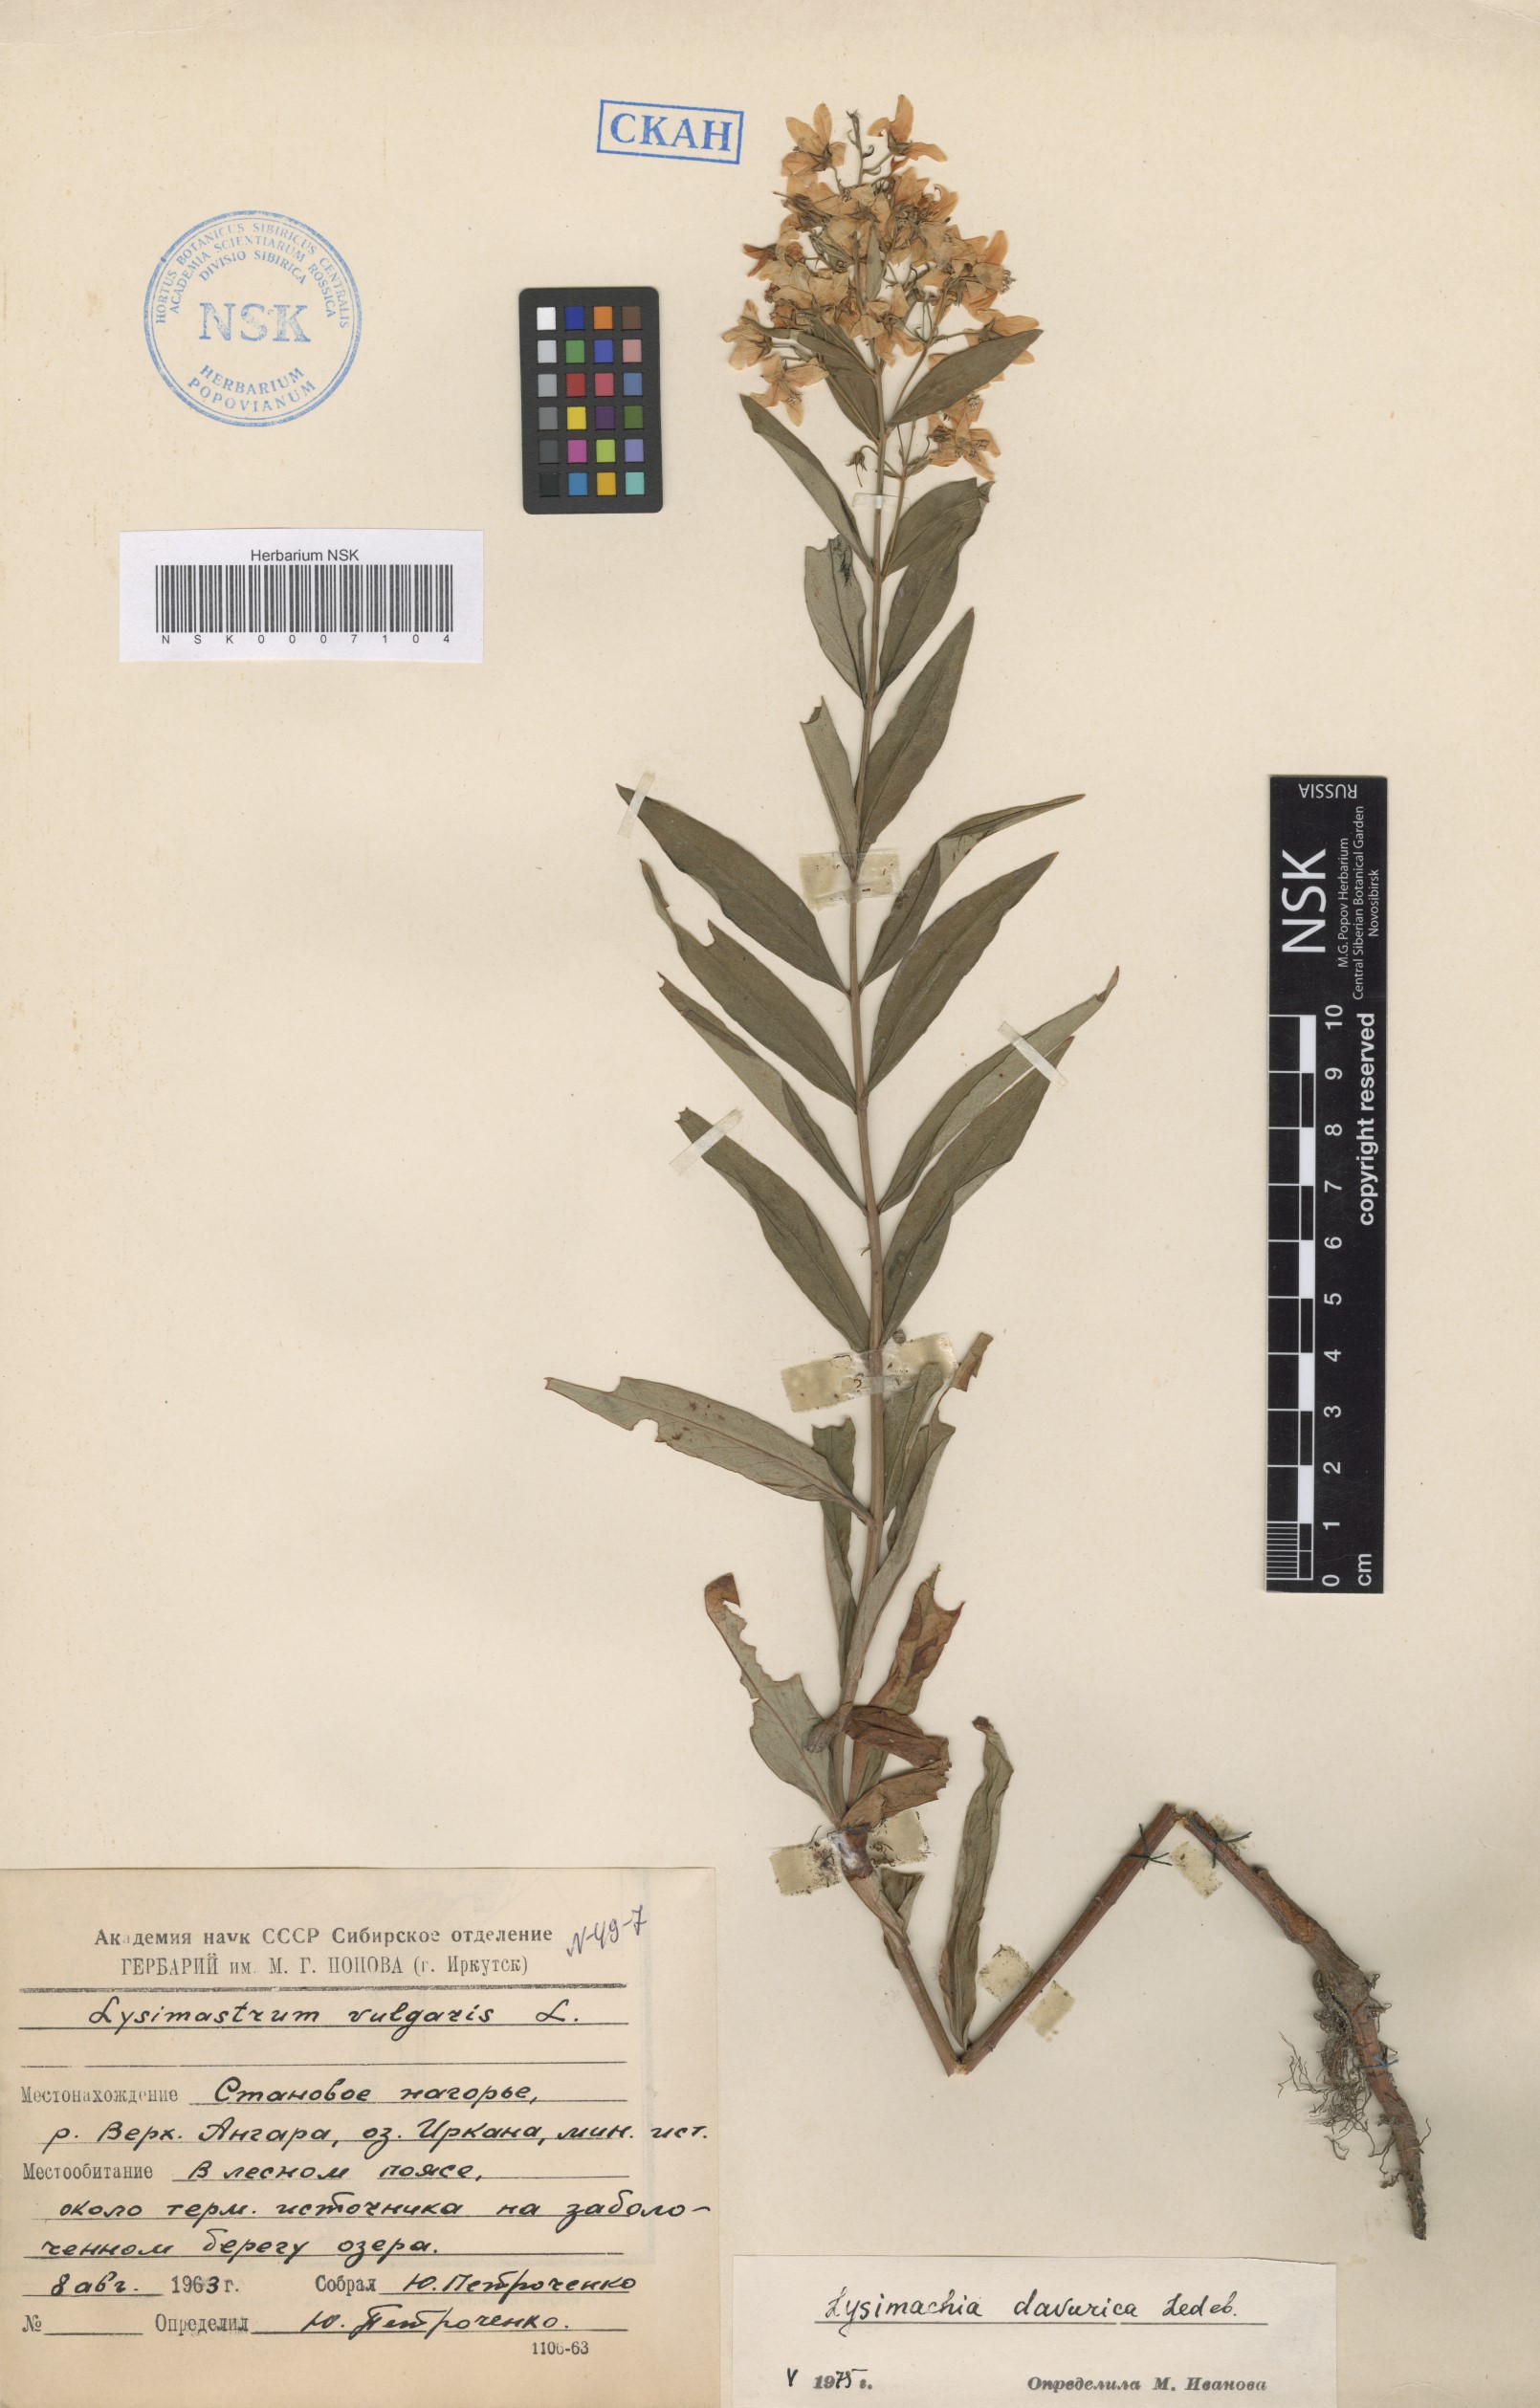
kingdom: Plantae
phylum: Tracheophyta
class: Magnoliopsida
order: Ericales
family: Primulaceae
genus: Lysimachia
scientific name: Lysimachia davurica
